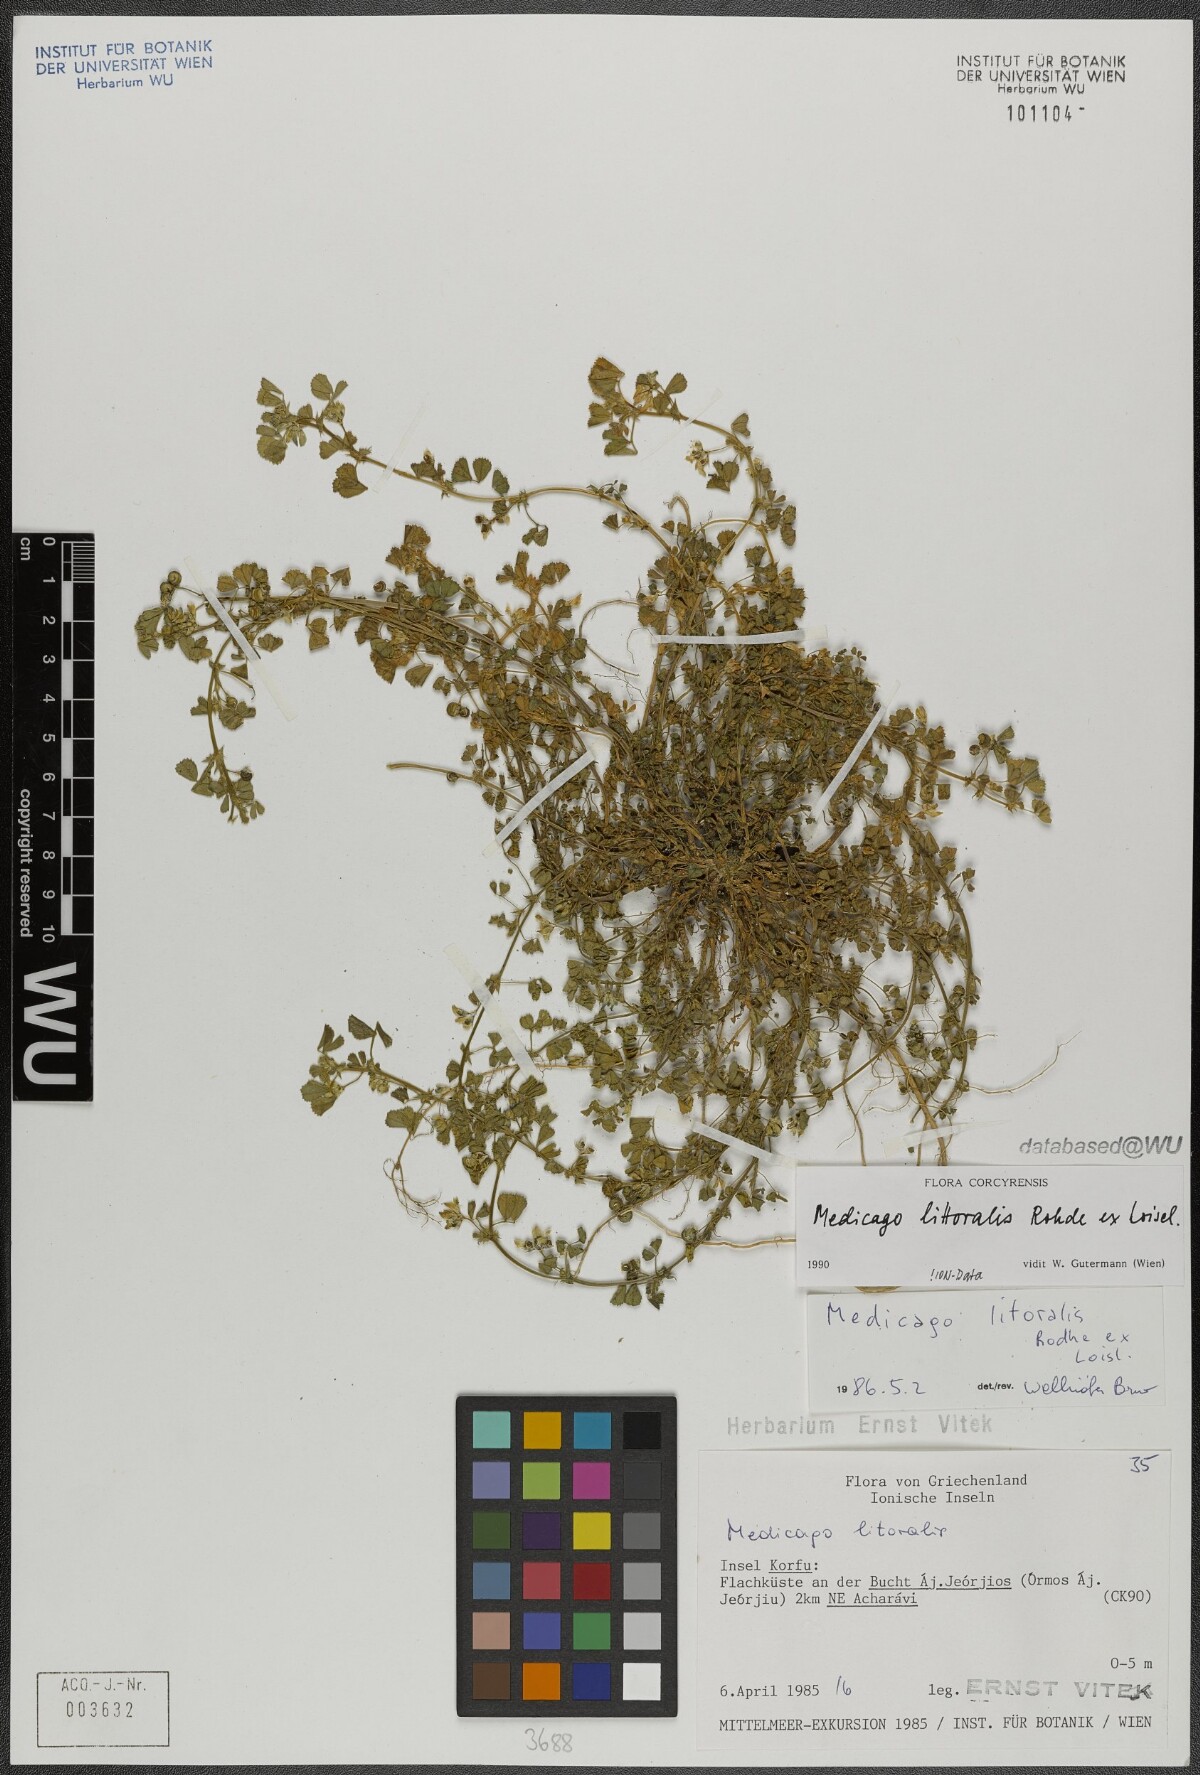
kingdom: Plantae
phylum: Tracheophyta
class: Magnoliopsida
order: Fabales
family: Fabaceae
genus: Medicago
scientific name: Medicago littoralis
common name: Shore medick
